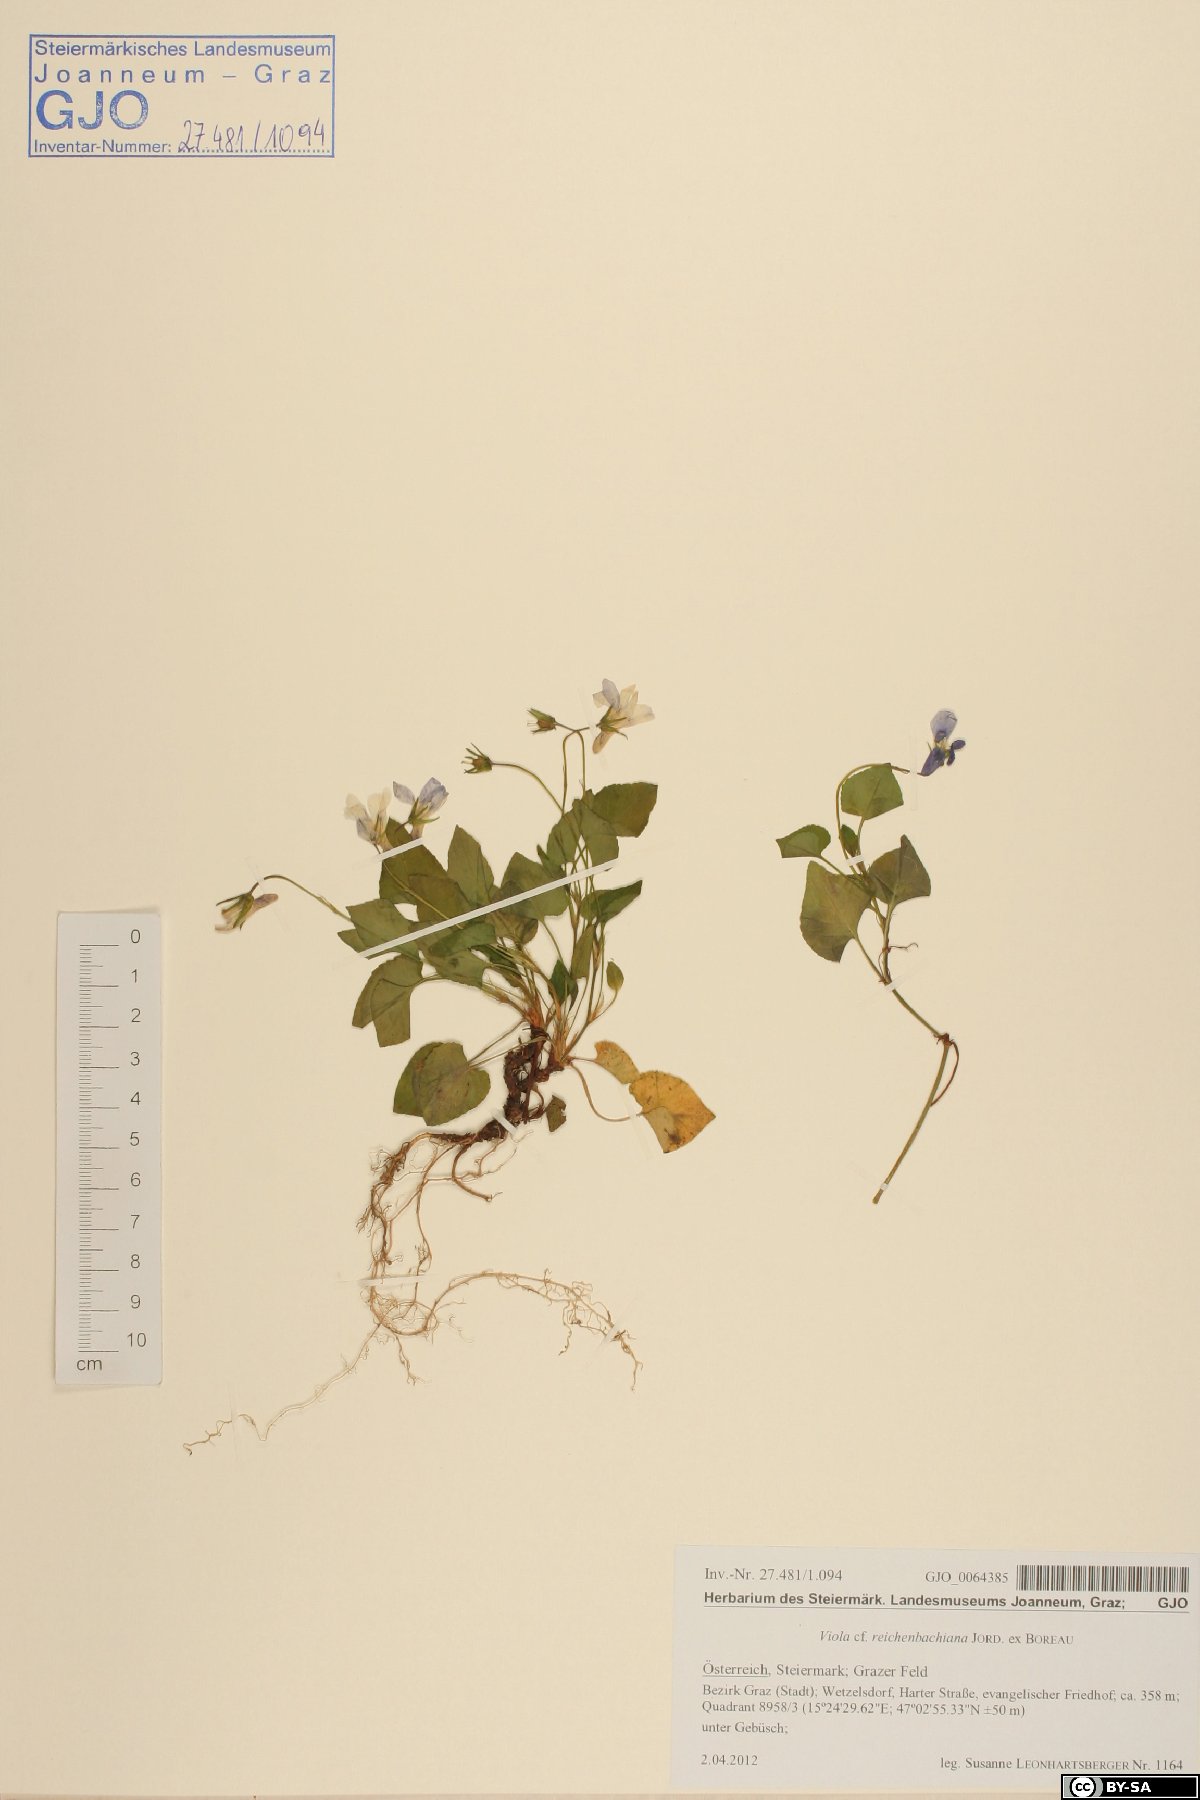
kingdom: Plantae
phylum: Tracheophyta
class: Magnoliopsida
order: Malpighiales
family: Violaceae
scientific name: Violaceae
